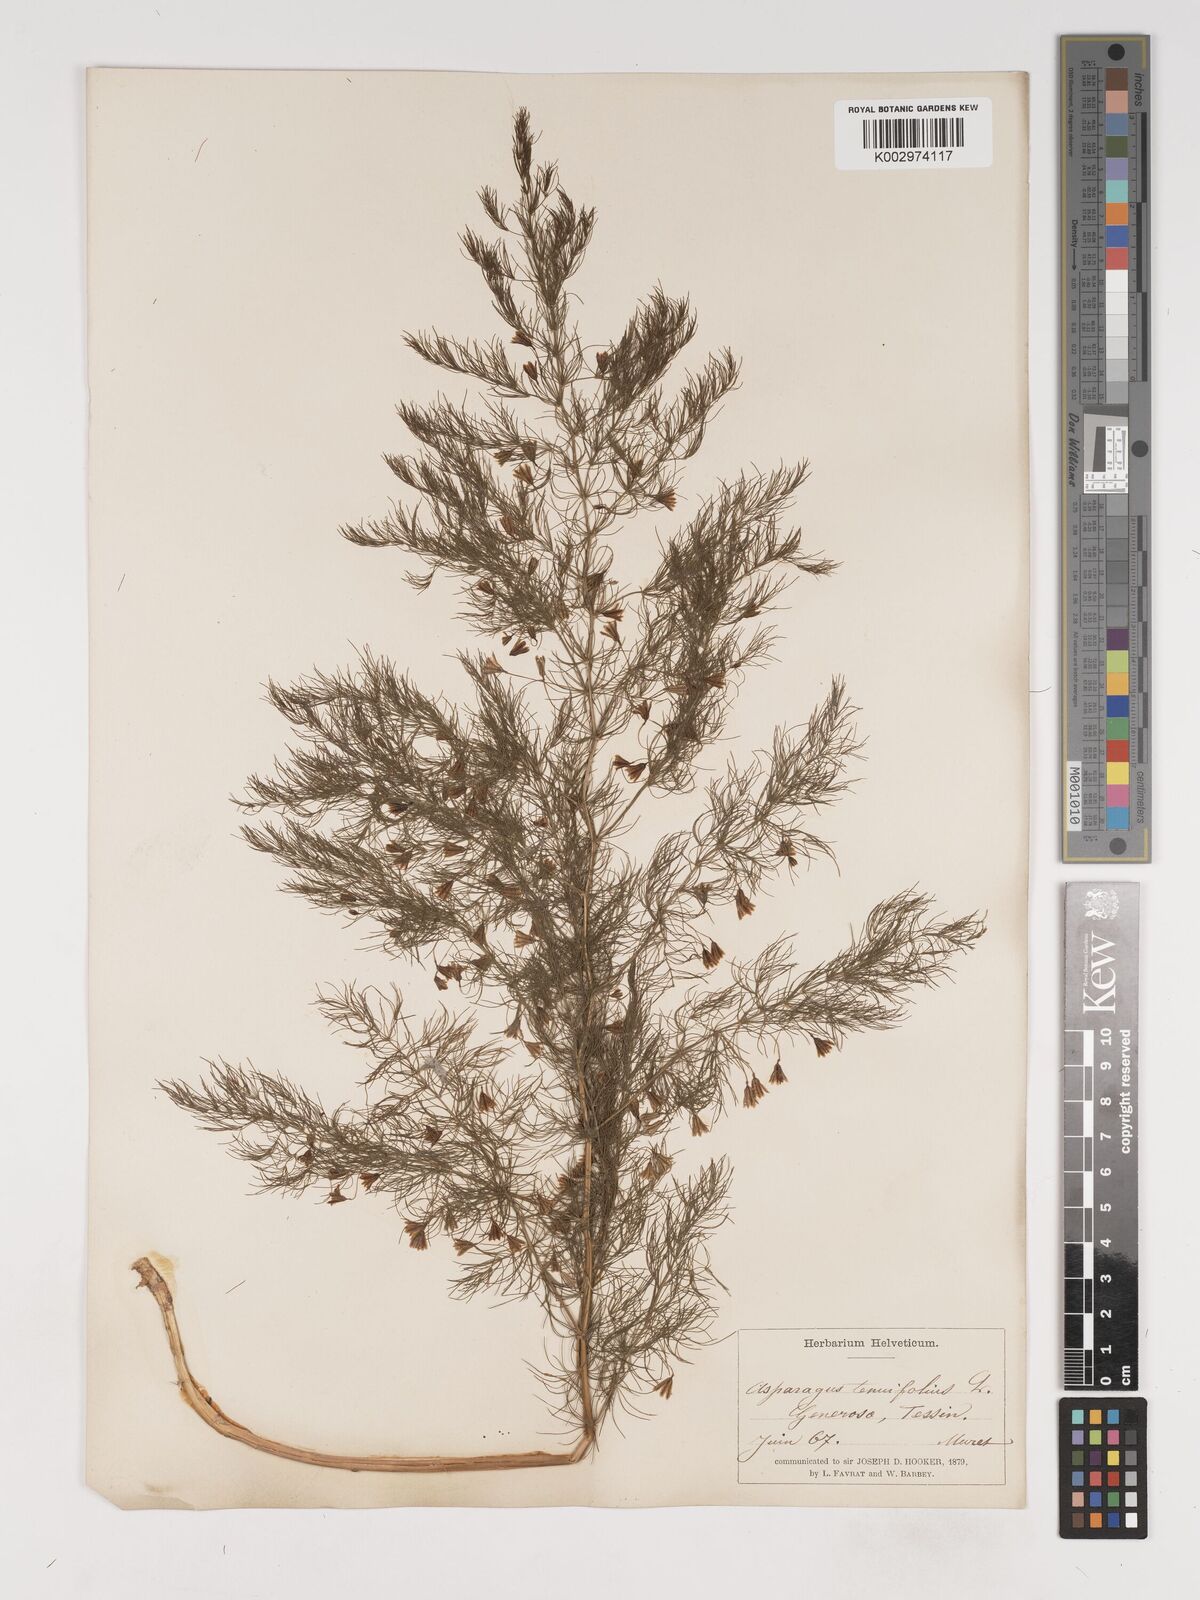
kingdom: Plantae
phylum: Tracheophyta
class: Liliopsida
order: Asparagales
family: Asparagaceae
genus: Asparagus
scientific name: Asparagus tenuifolius
